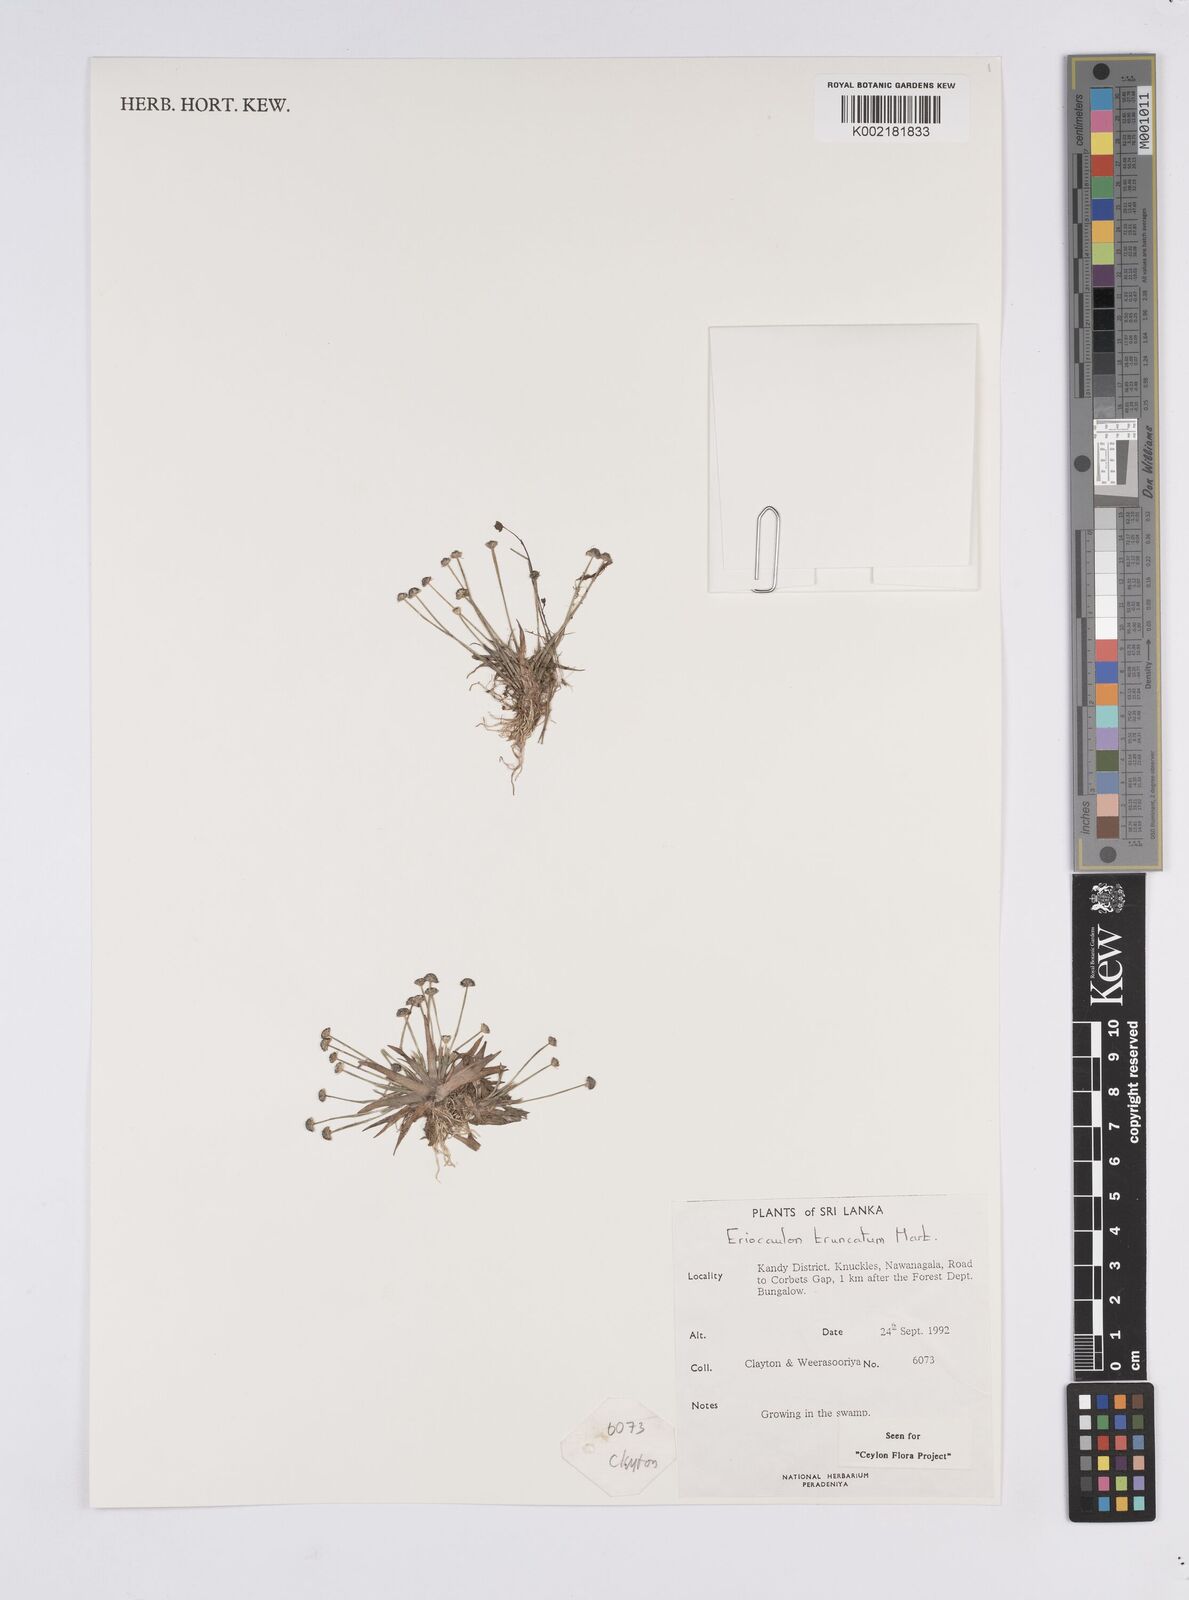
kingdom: Plantae
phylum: Tracheophyta
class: Liliopsida
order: Poales
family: Eriocaulaceae
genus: Eriocaulon
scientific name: Eriocaulon truncatum
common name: Short pipe-wort
